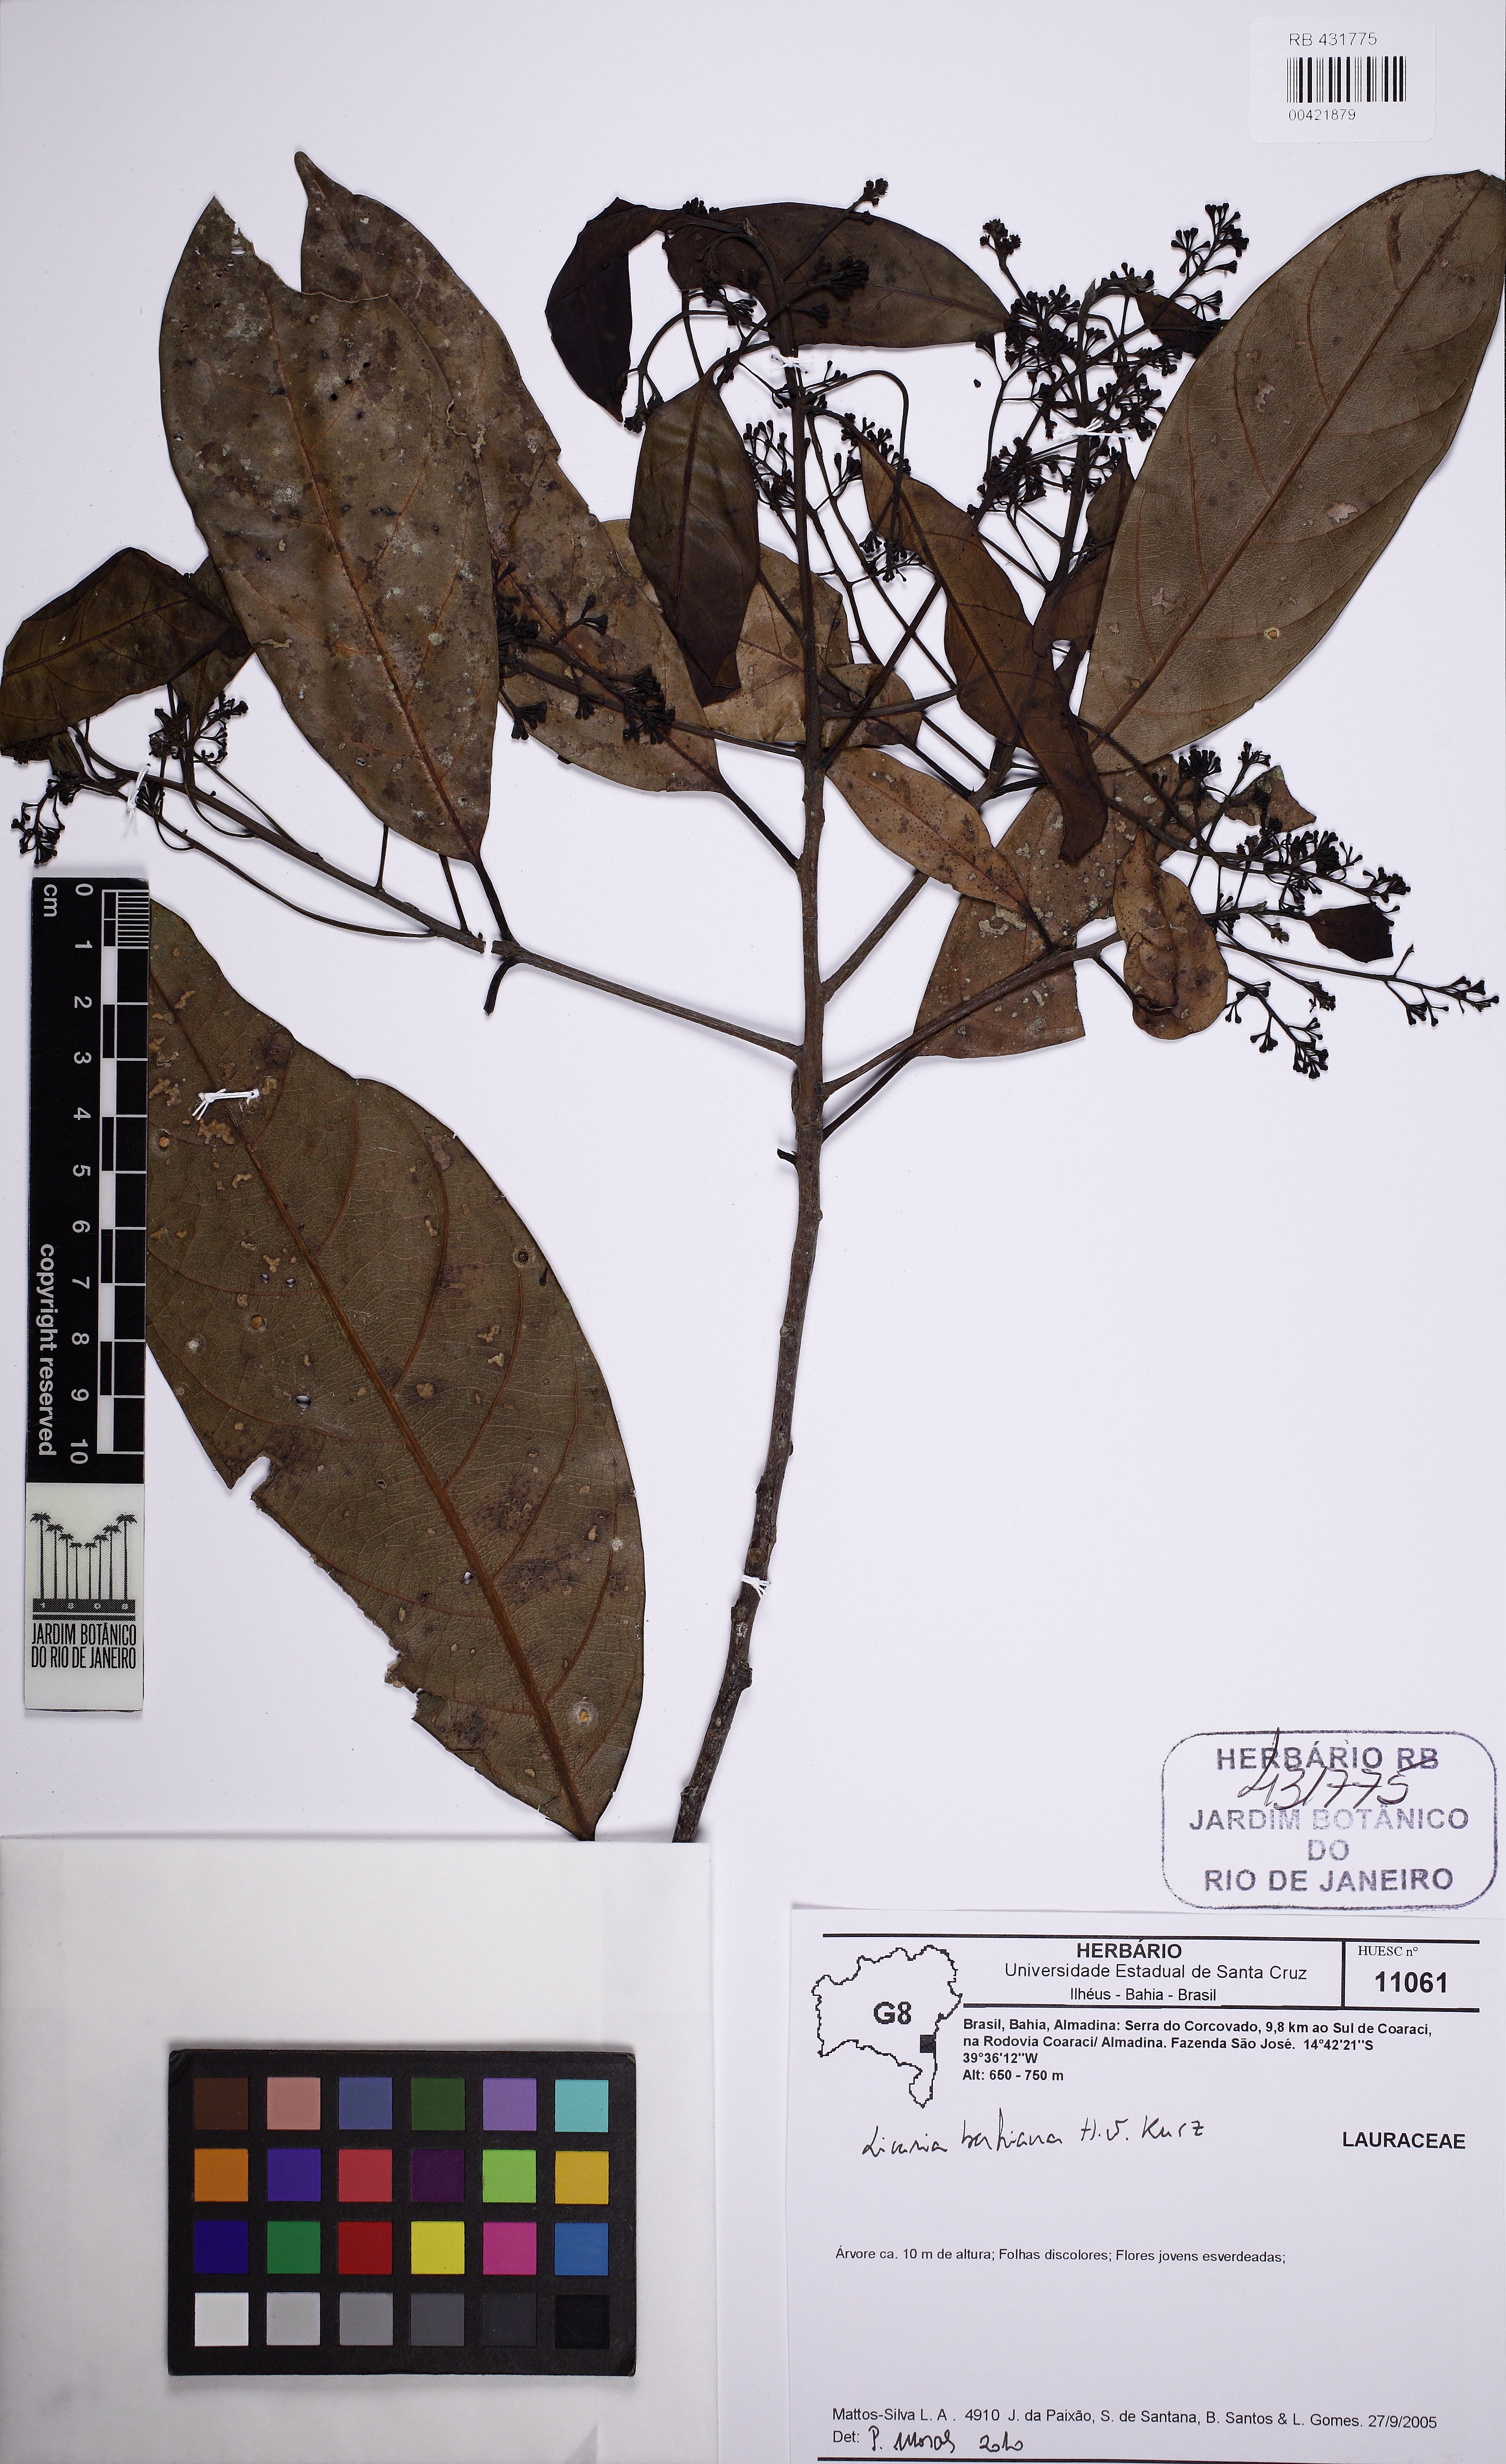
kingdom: Plantae
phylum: Tracheophyta
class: Magnoliopsida
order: Laurales
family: Lauraceae
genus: Licaria
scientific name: Licaria bahiana
